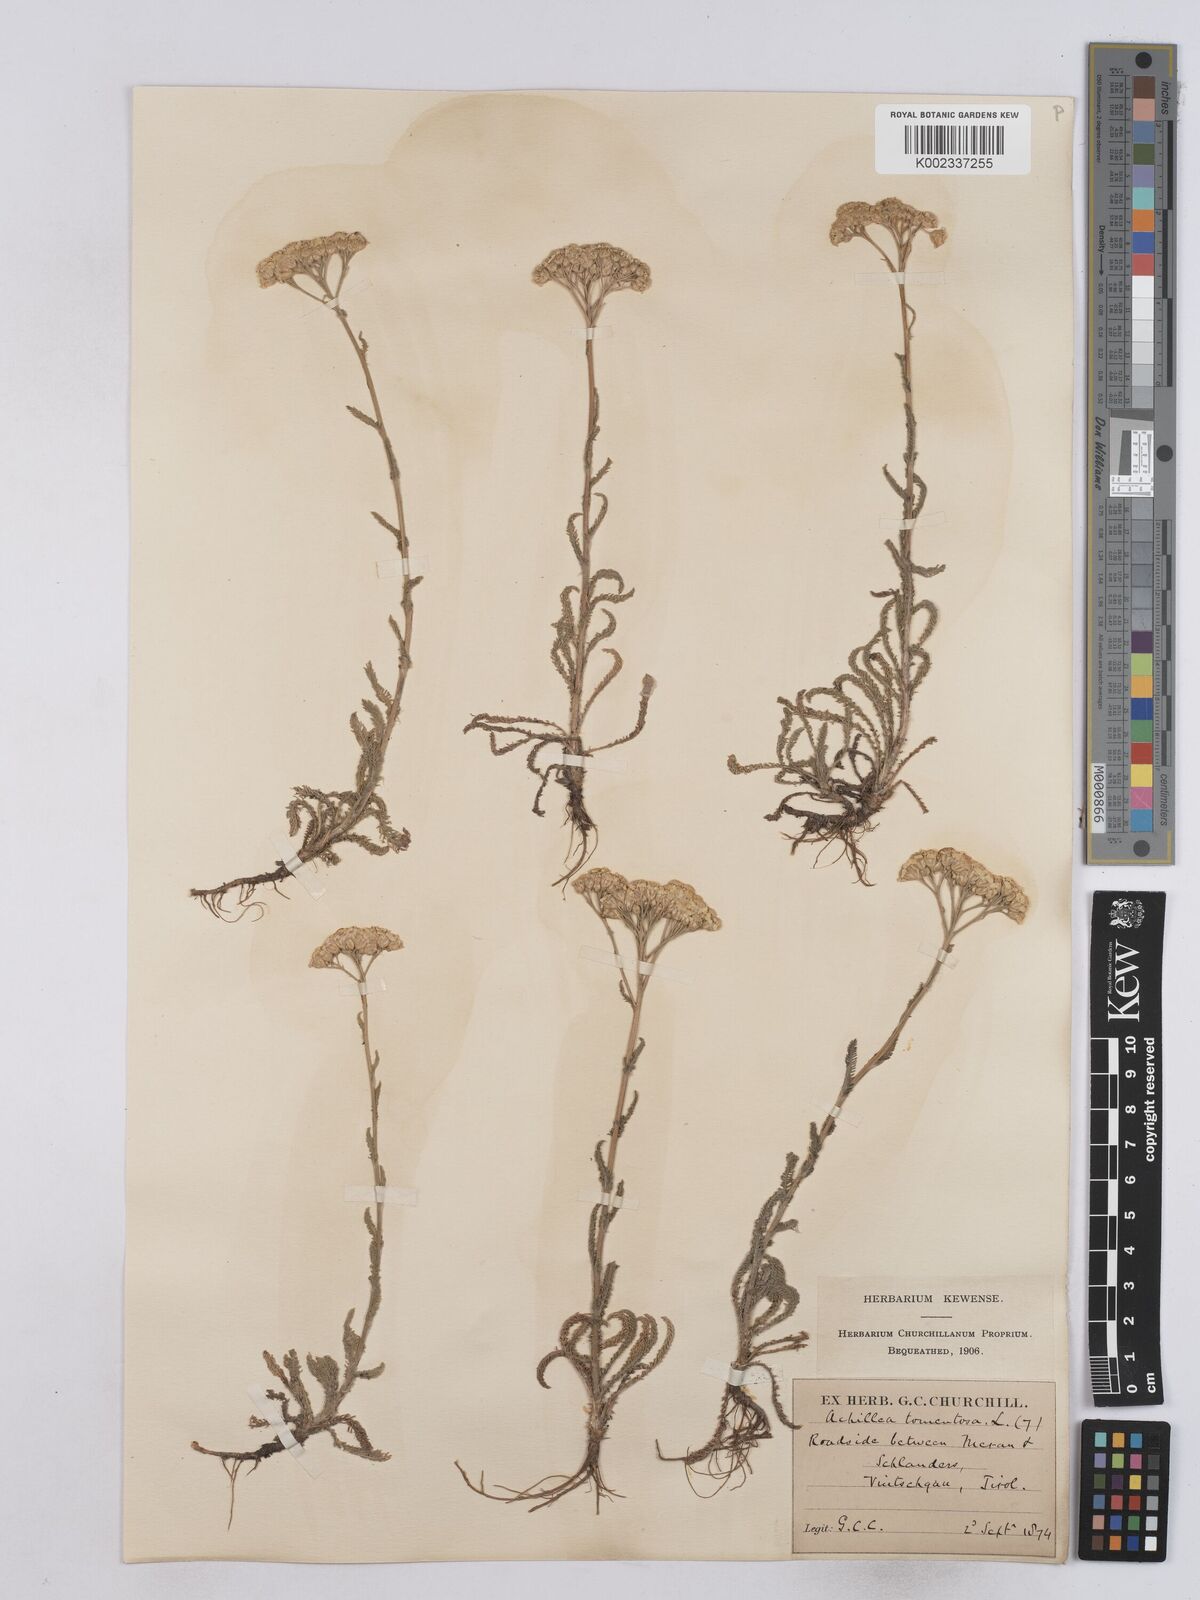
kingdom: Plantae
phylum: Tracheophyta
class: Magnoliopsida
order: Asterales
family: Asteraceae
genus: Achillea
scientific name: Achillea tomentosa
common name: Yellow milfoil
